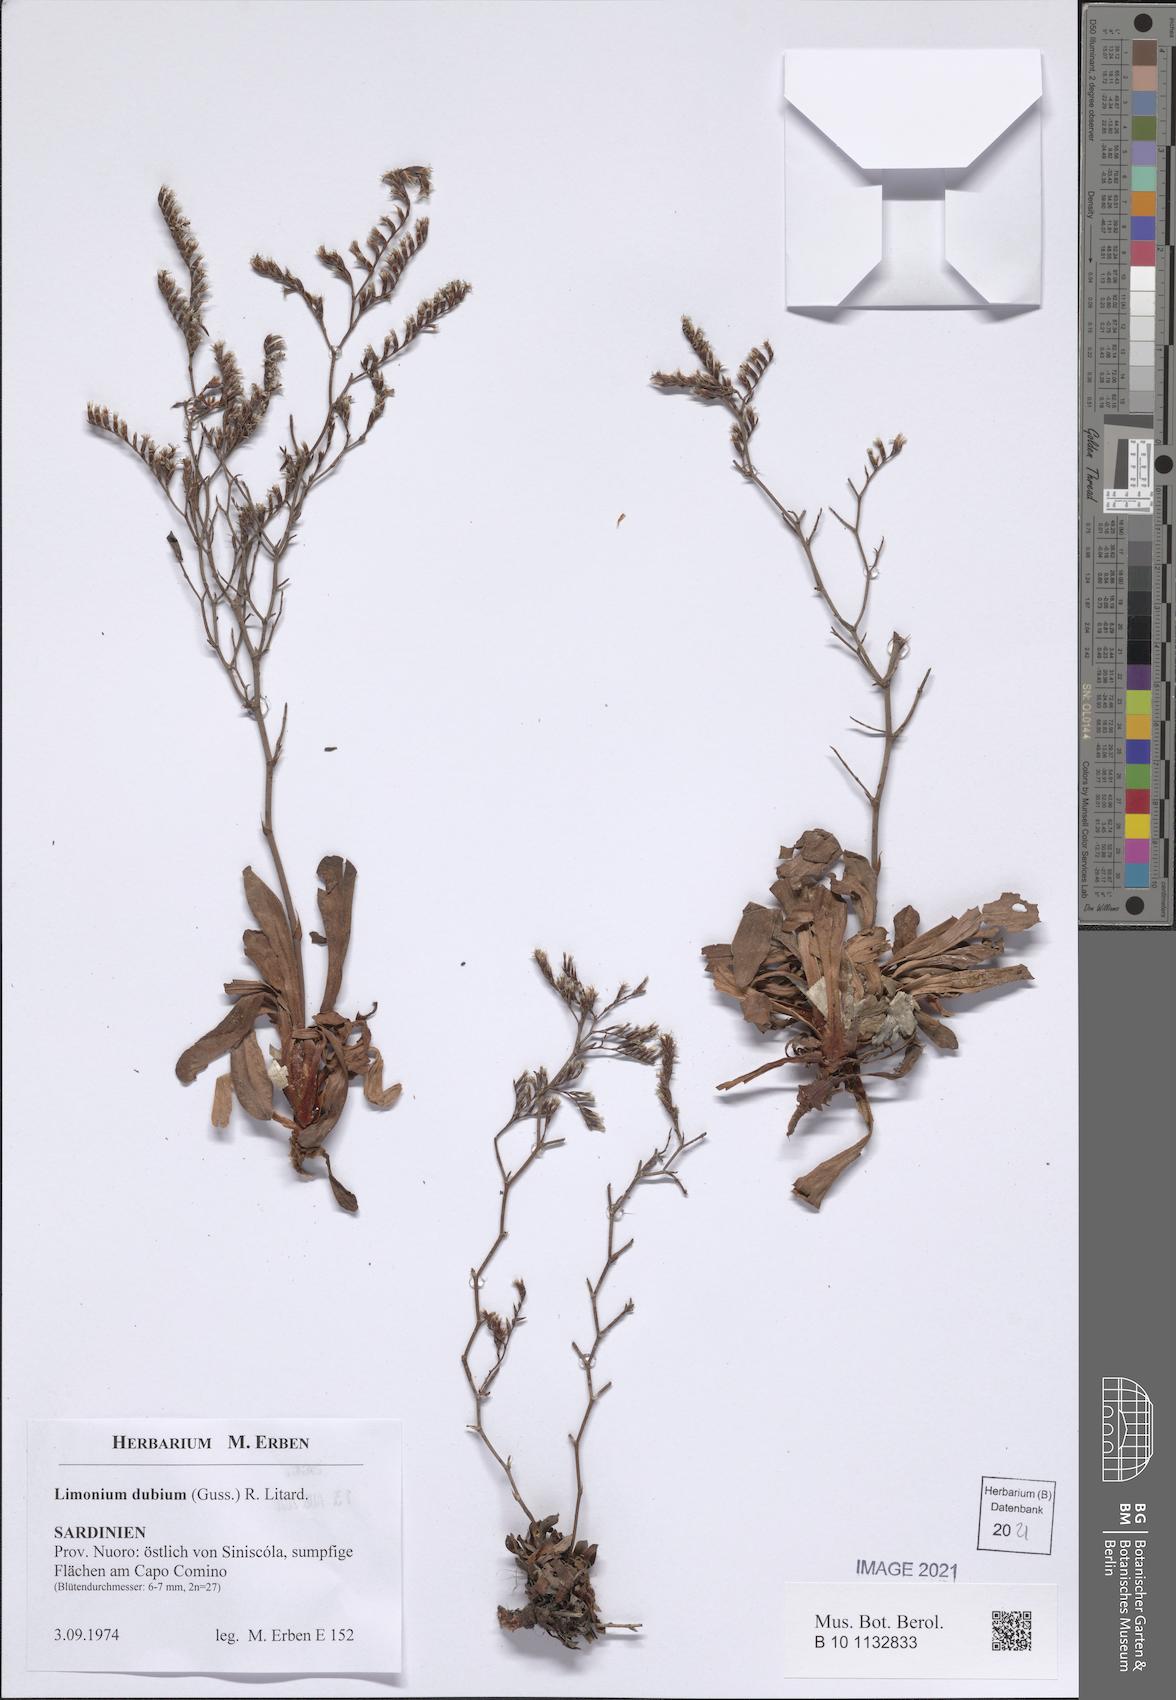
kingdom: Plantae
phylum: Tracheophyta
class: Magnoliopsida
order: Caryophyllales
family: Plumbaginaceae
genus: Limonium
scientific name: Limonium dubium
